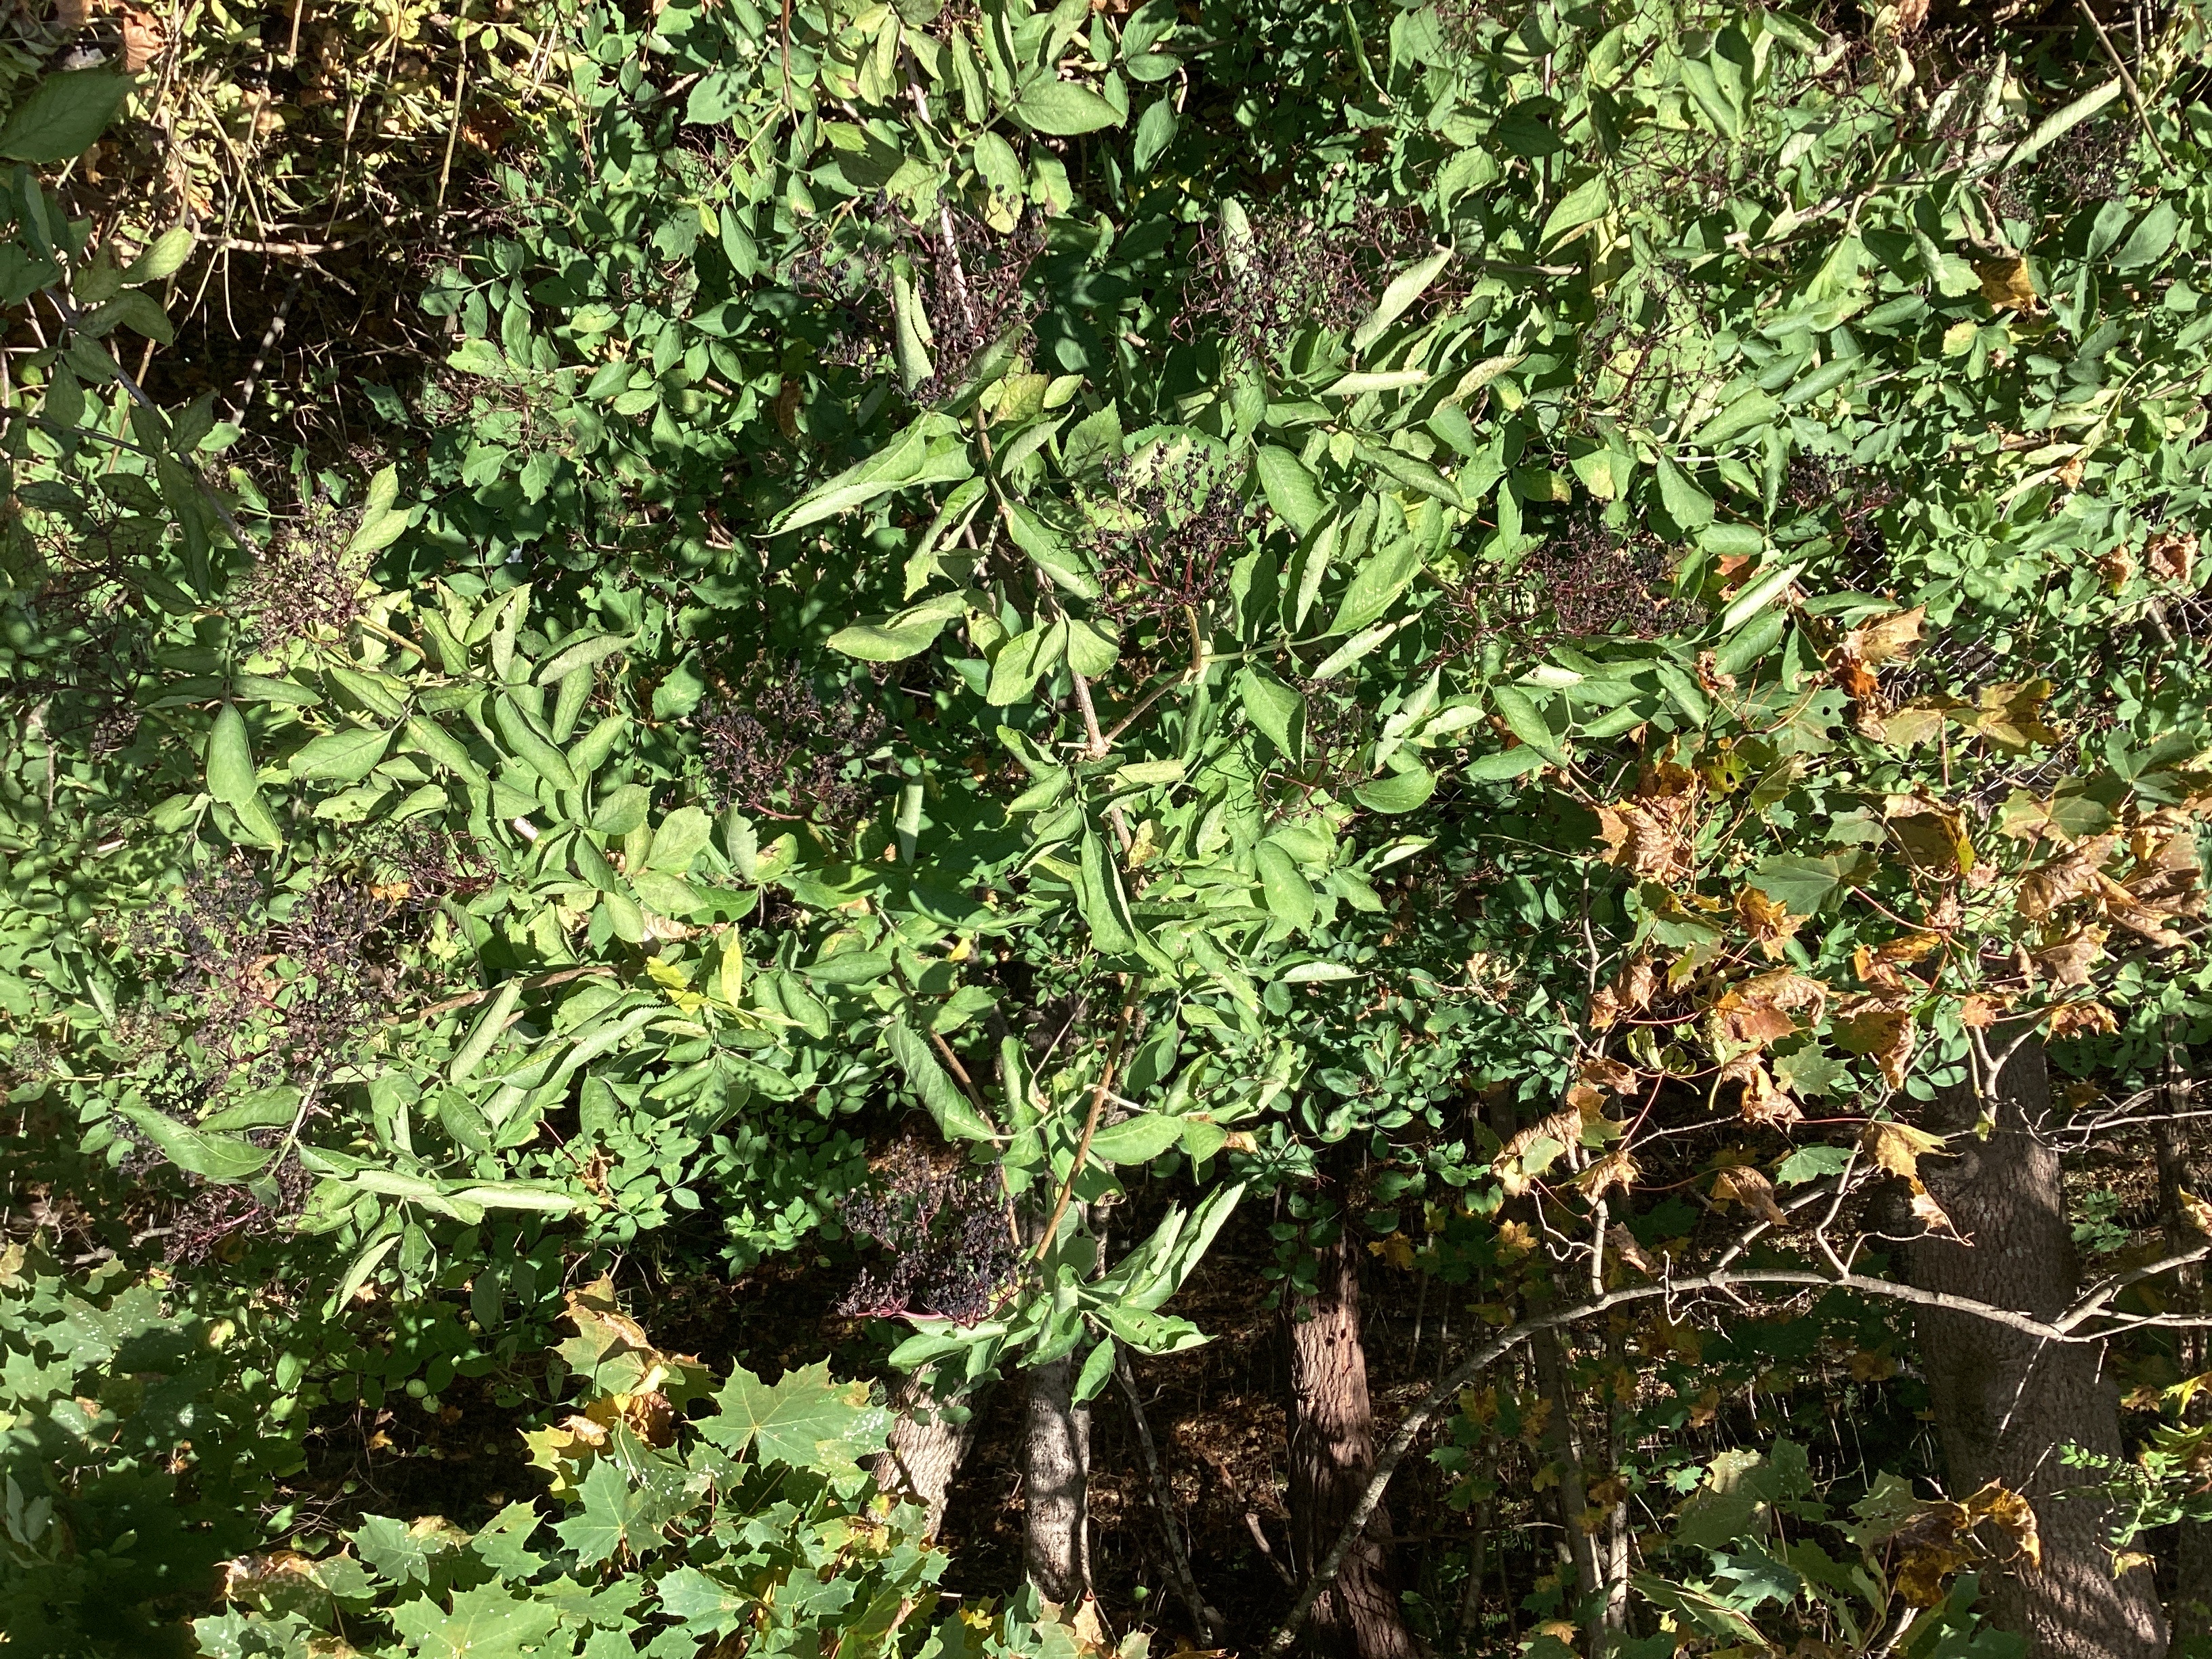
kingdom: Plantae
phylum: Tracheophyta
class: Magnoliopsida
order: Dipsacales
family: Viburnaceae
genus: Sambucus
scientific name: Sambucus nigra
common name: svarthyll
